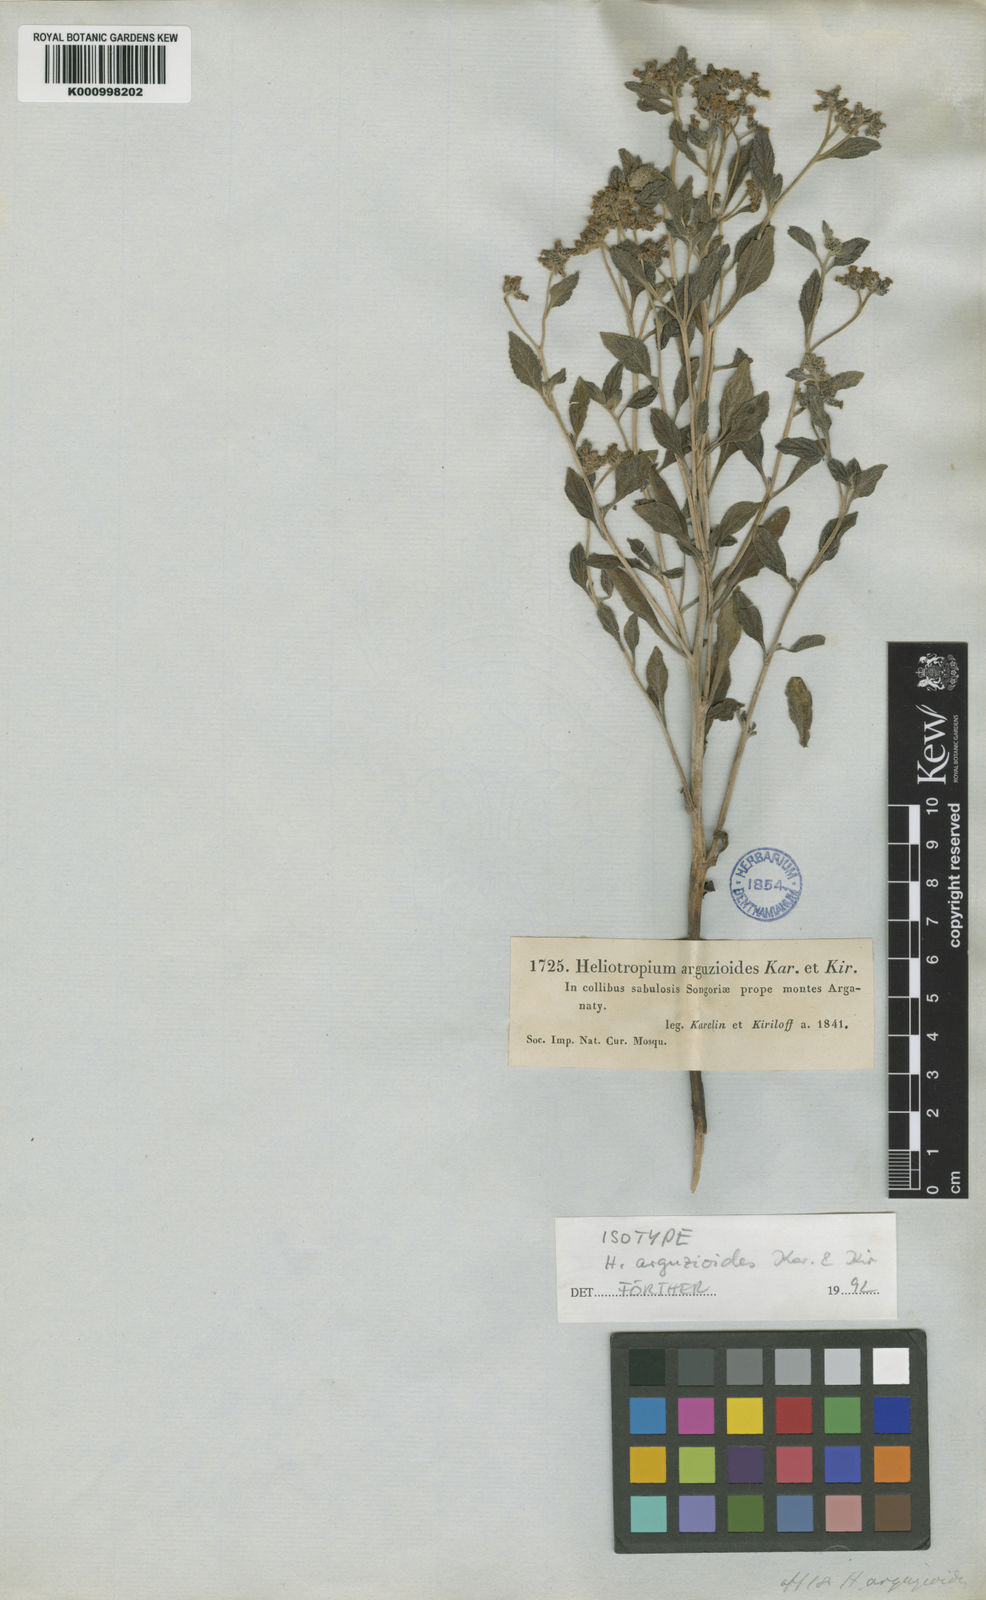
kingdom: Plantae
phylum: Tracheophyta
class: Magnoliopsida
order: Boraginales
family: Heliotropiaceae
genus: Heliotropium
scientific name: Heliotropium bucharicum
